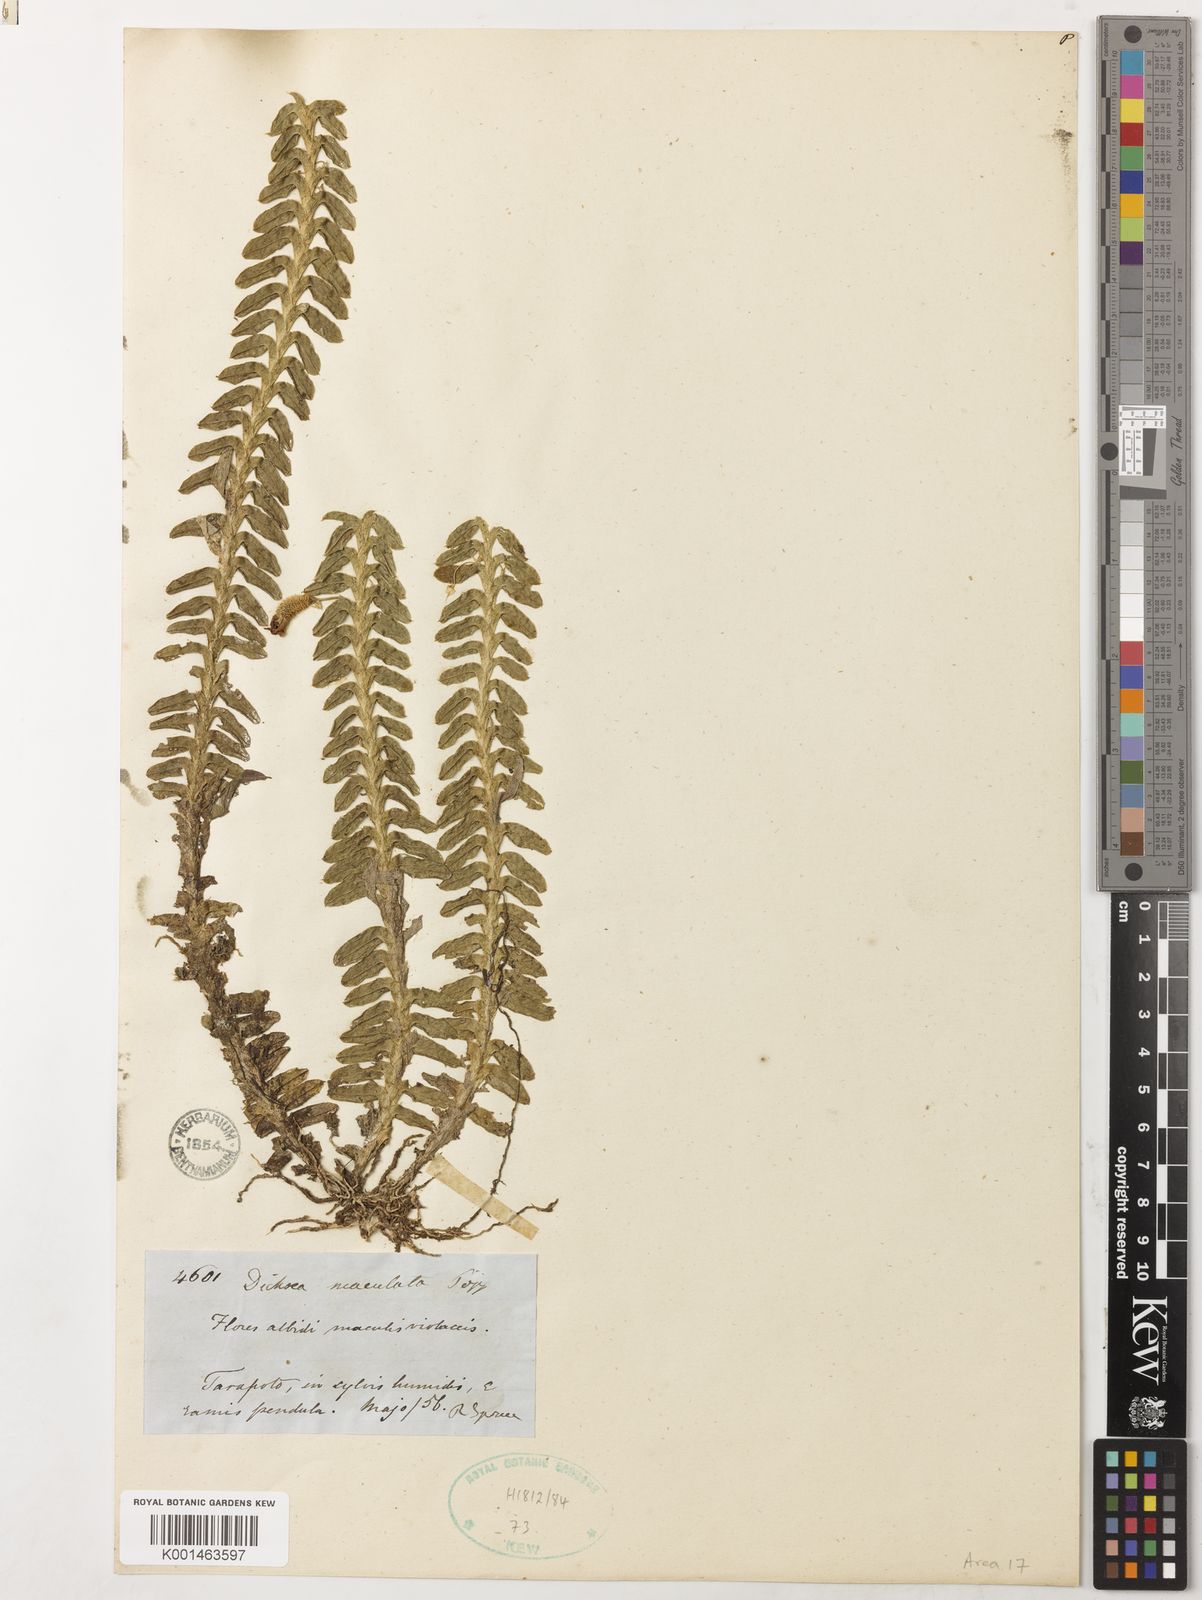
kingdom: Plantae
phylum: Tracheophyta
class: Liliopsida
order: Asparagales
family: Orchidaceae
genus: Dichaea
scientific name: Dichaea laxa
